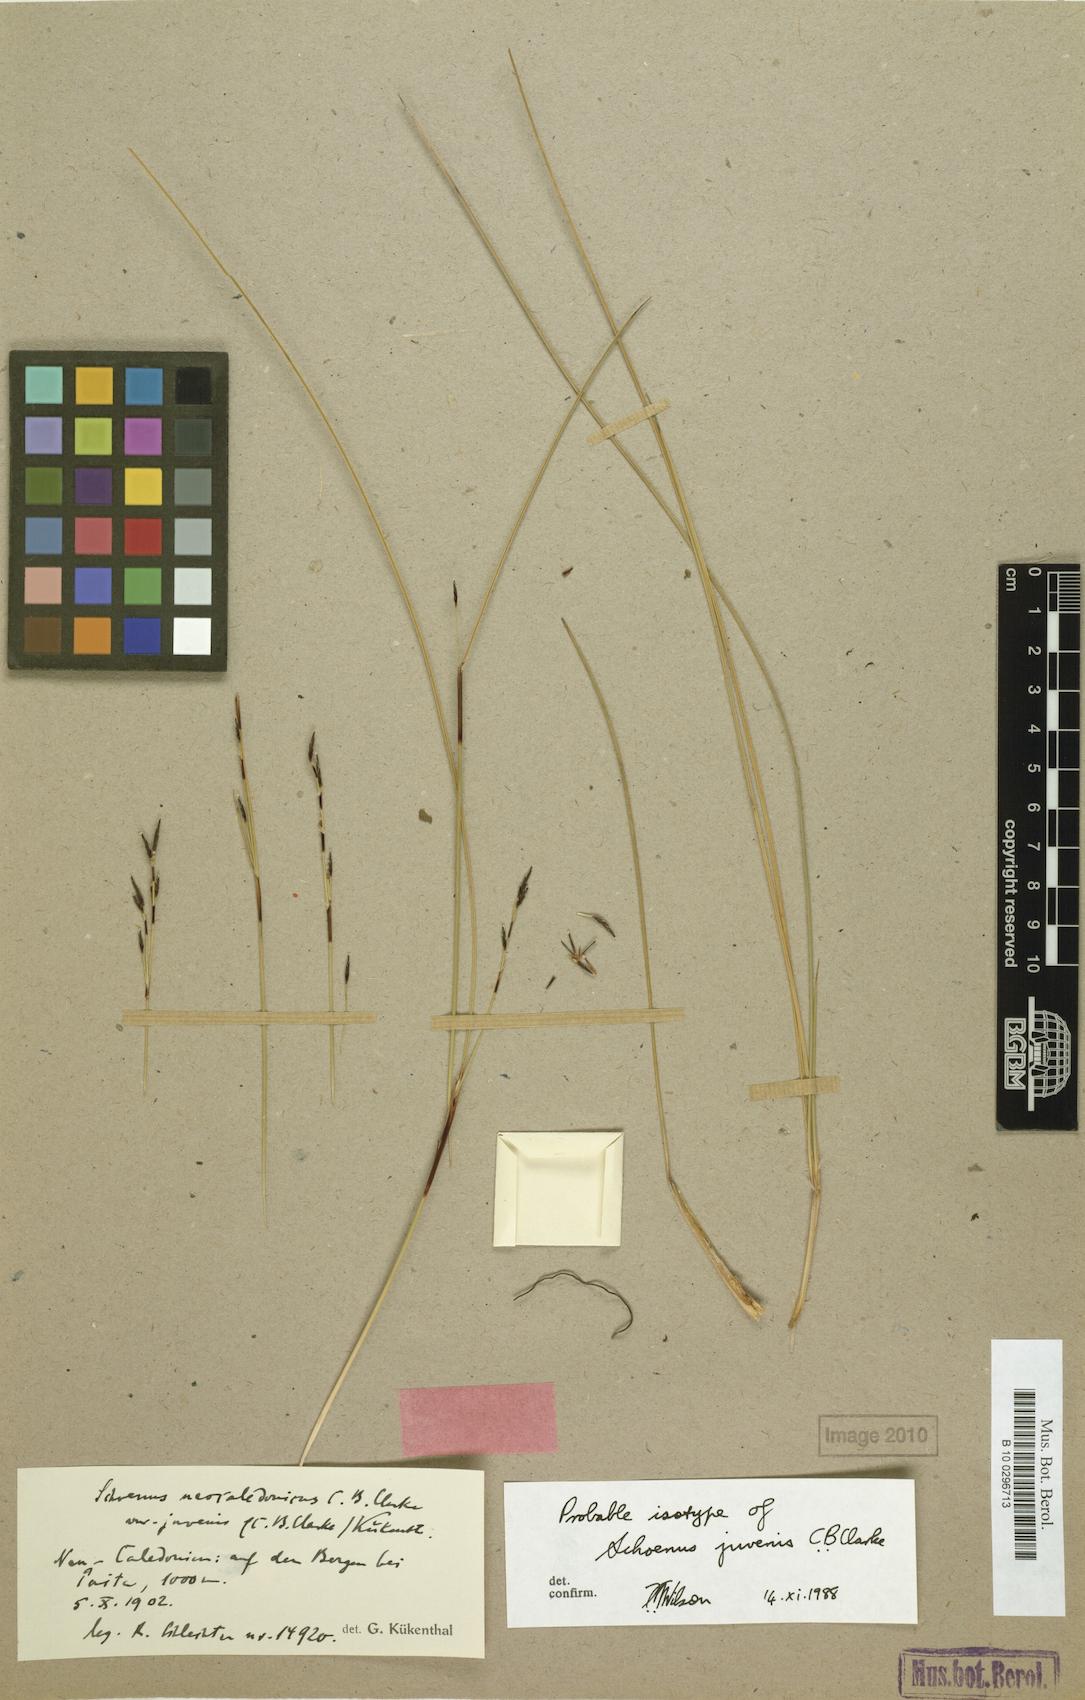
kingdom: Plantae
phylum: Tracheophyta
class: Liliopsida
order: Poales
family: Cyperaceae
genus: Schoenus
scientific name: Schoenus neocaledonicus
